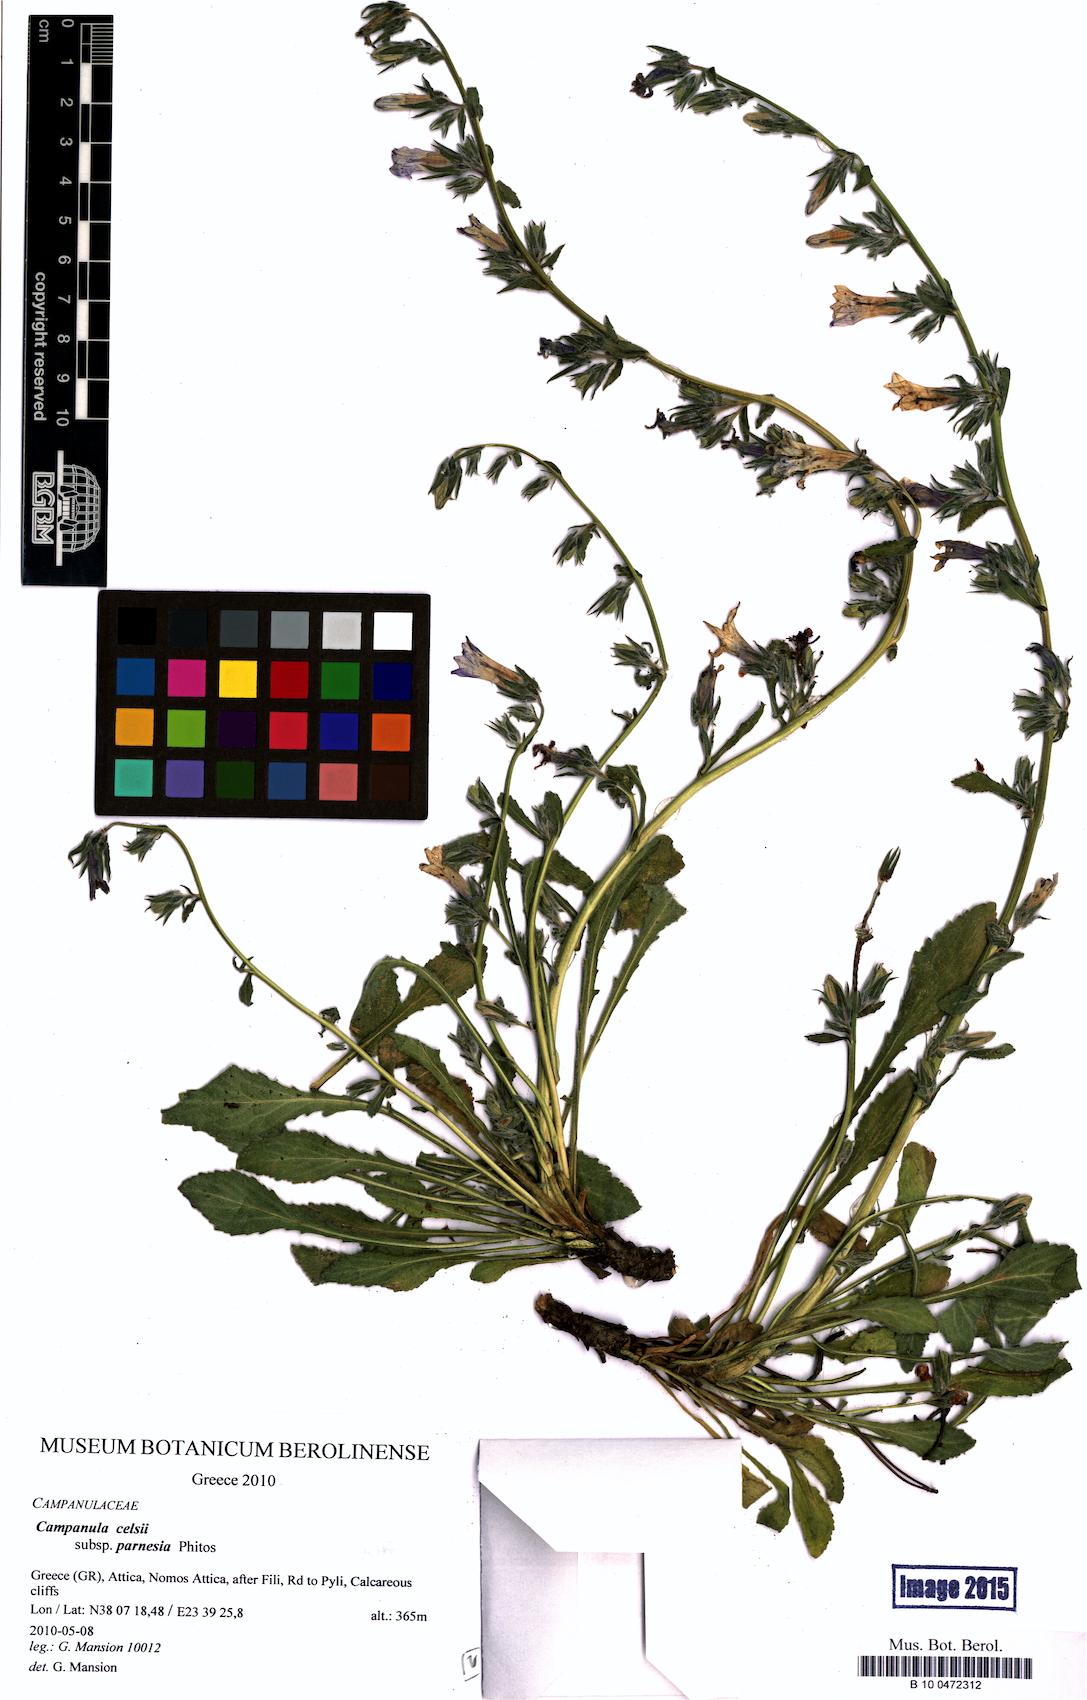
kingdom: Plantae
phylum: Tracheophyta
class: Magnoliopsida
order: Asterales
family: Campanulaceae
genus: Campanula
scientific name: Campanula celsii
